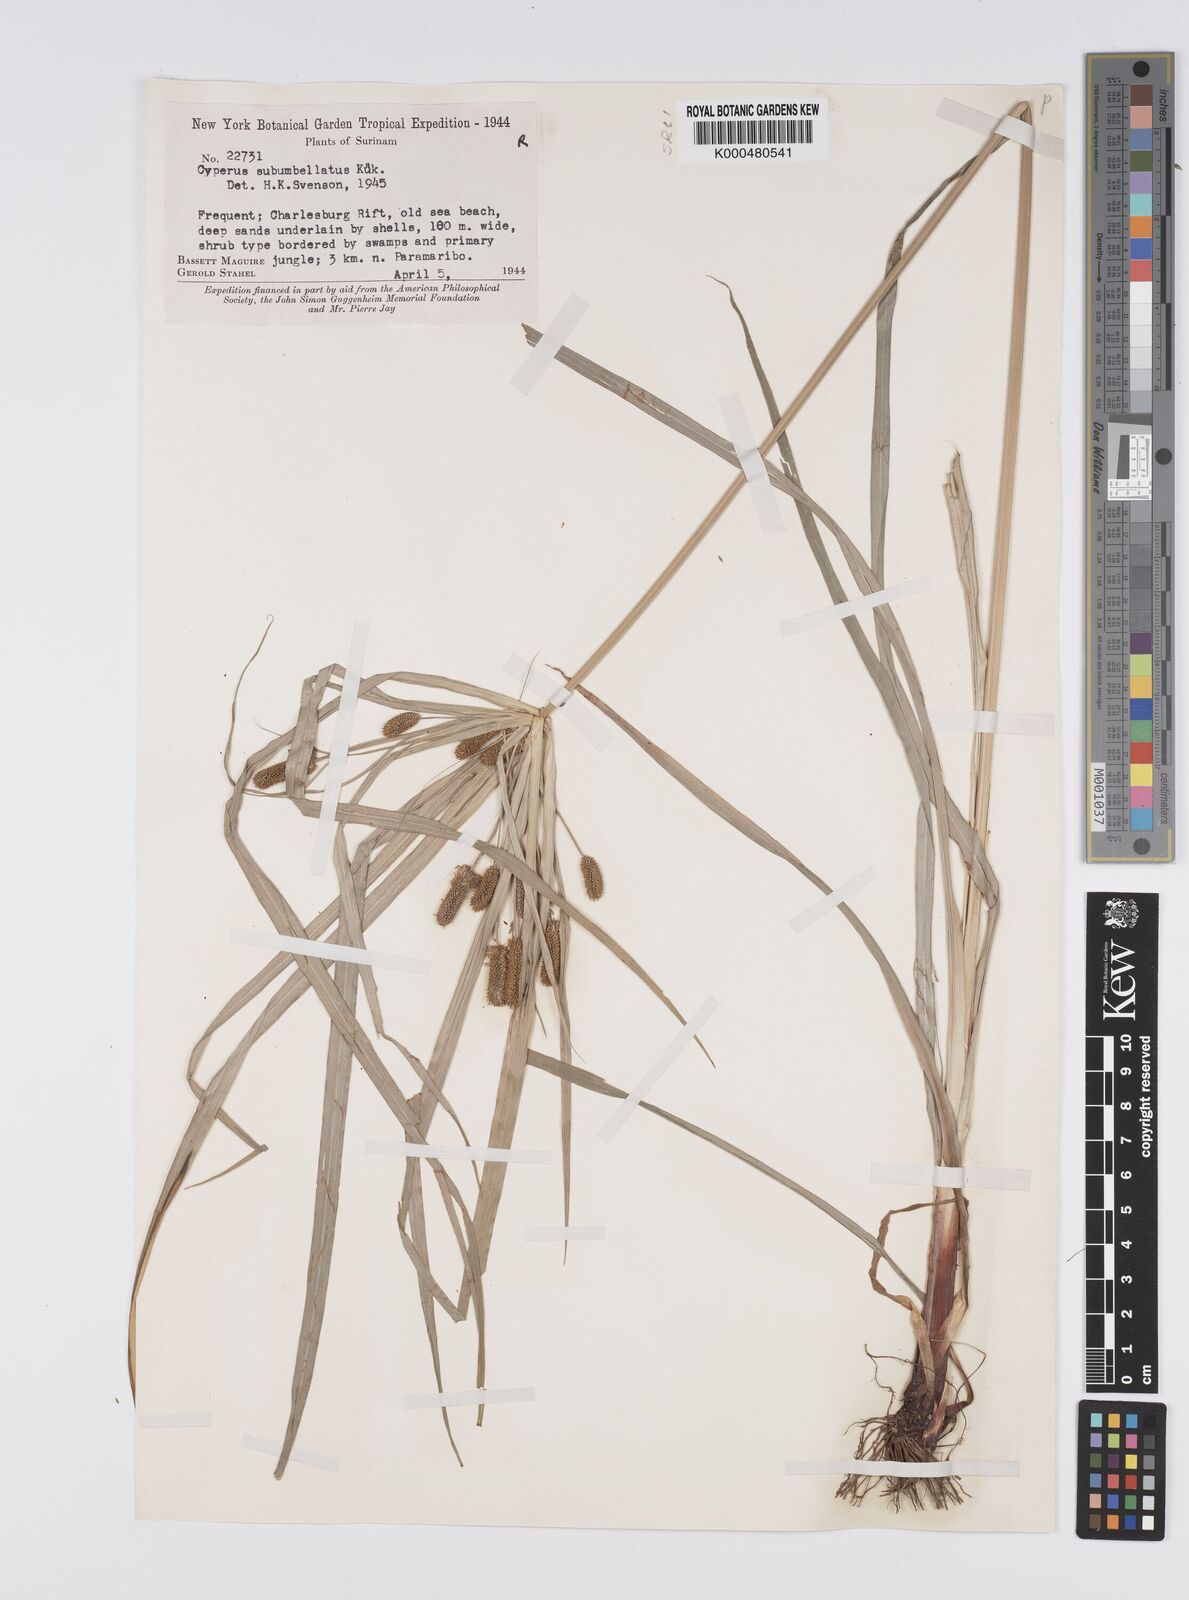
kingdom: Plantae
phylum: Tracheophyta
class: Liliopsida
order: Poales
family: Cyperaceae
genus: Cyperus
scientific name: Cyperus cyperoides
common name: Pacific island flat sedge
